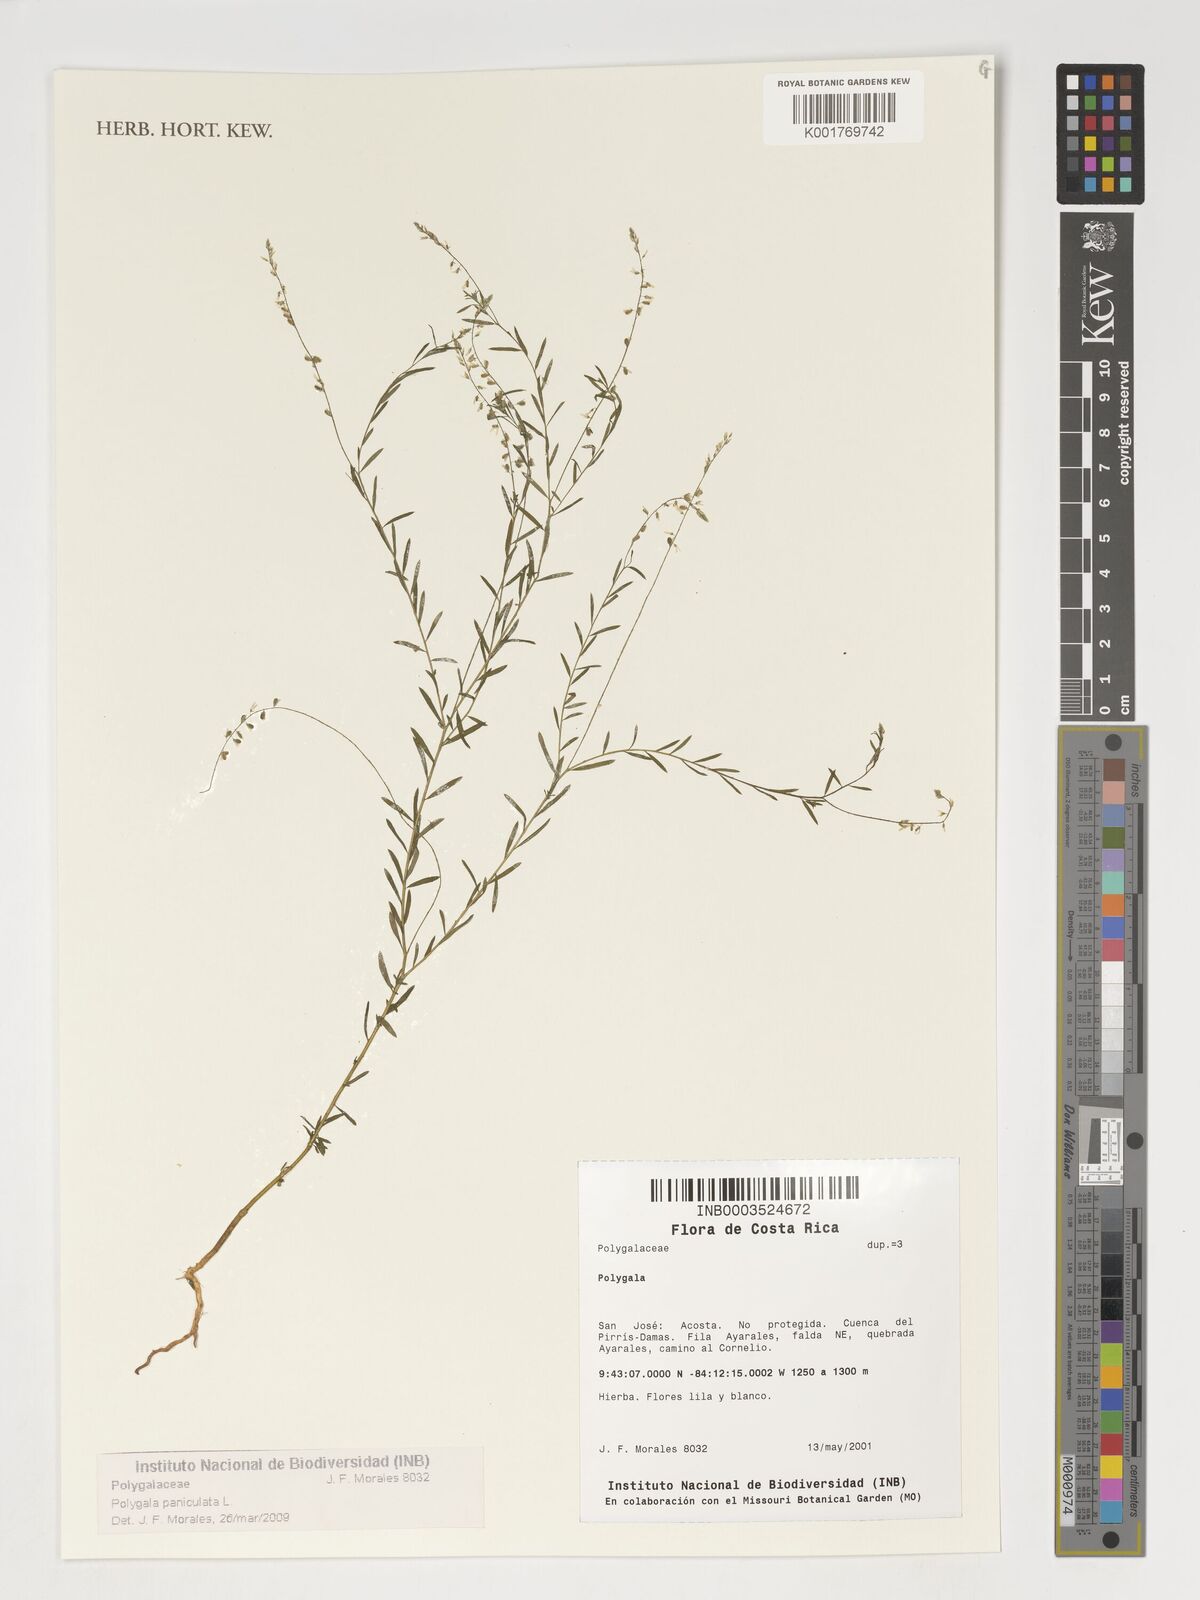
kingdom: Plantae
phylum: Tracheophyta
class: Magnoliopsida
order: Fabales
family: Polygalaceae
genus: Polygala
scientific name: Polygala paniculata
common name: Orosne
